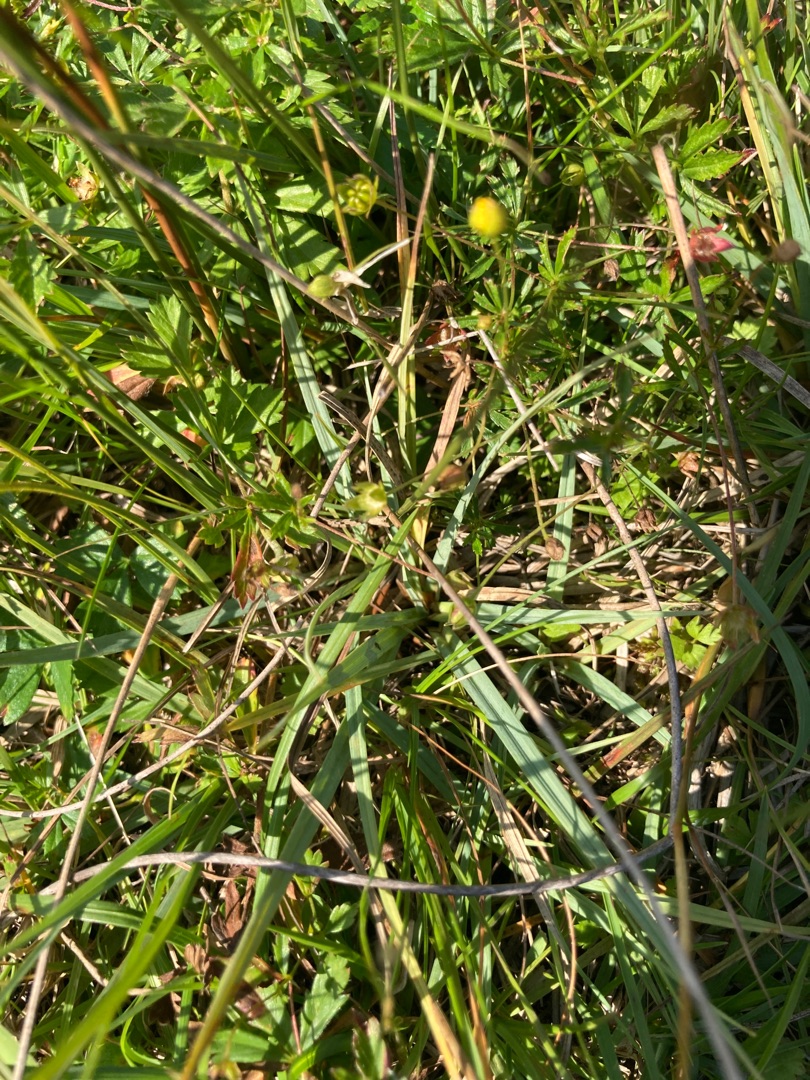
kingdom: Plantae
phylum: Tracheophyta
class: Liliopsida
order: Poales
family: Cyperaceae
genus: Carex
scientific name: Carex
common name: Starslægten
